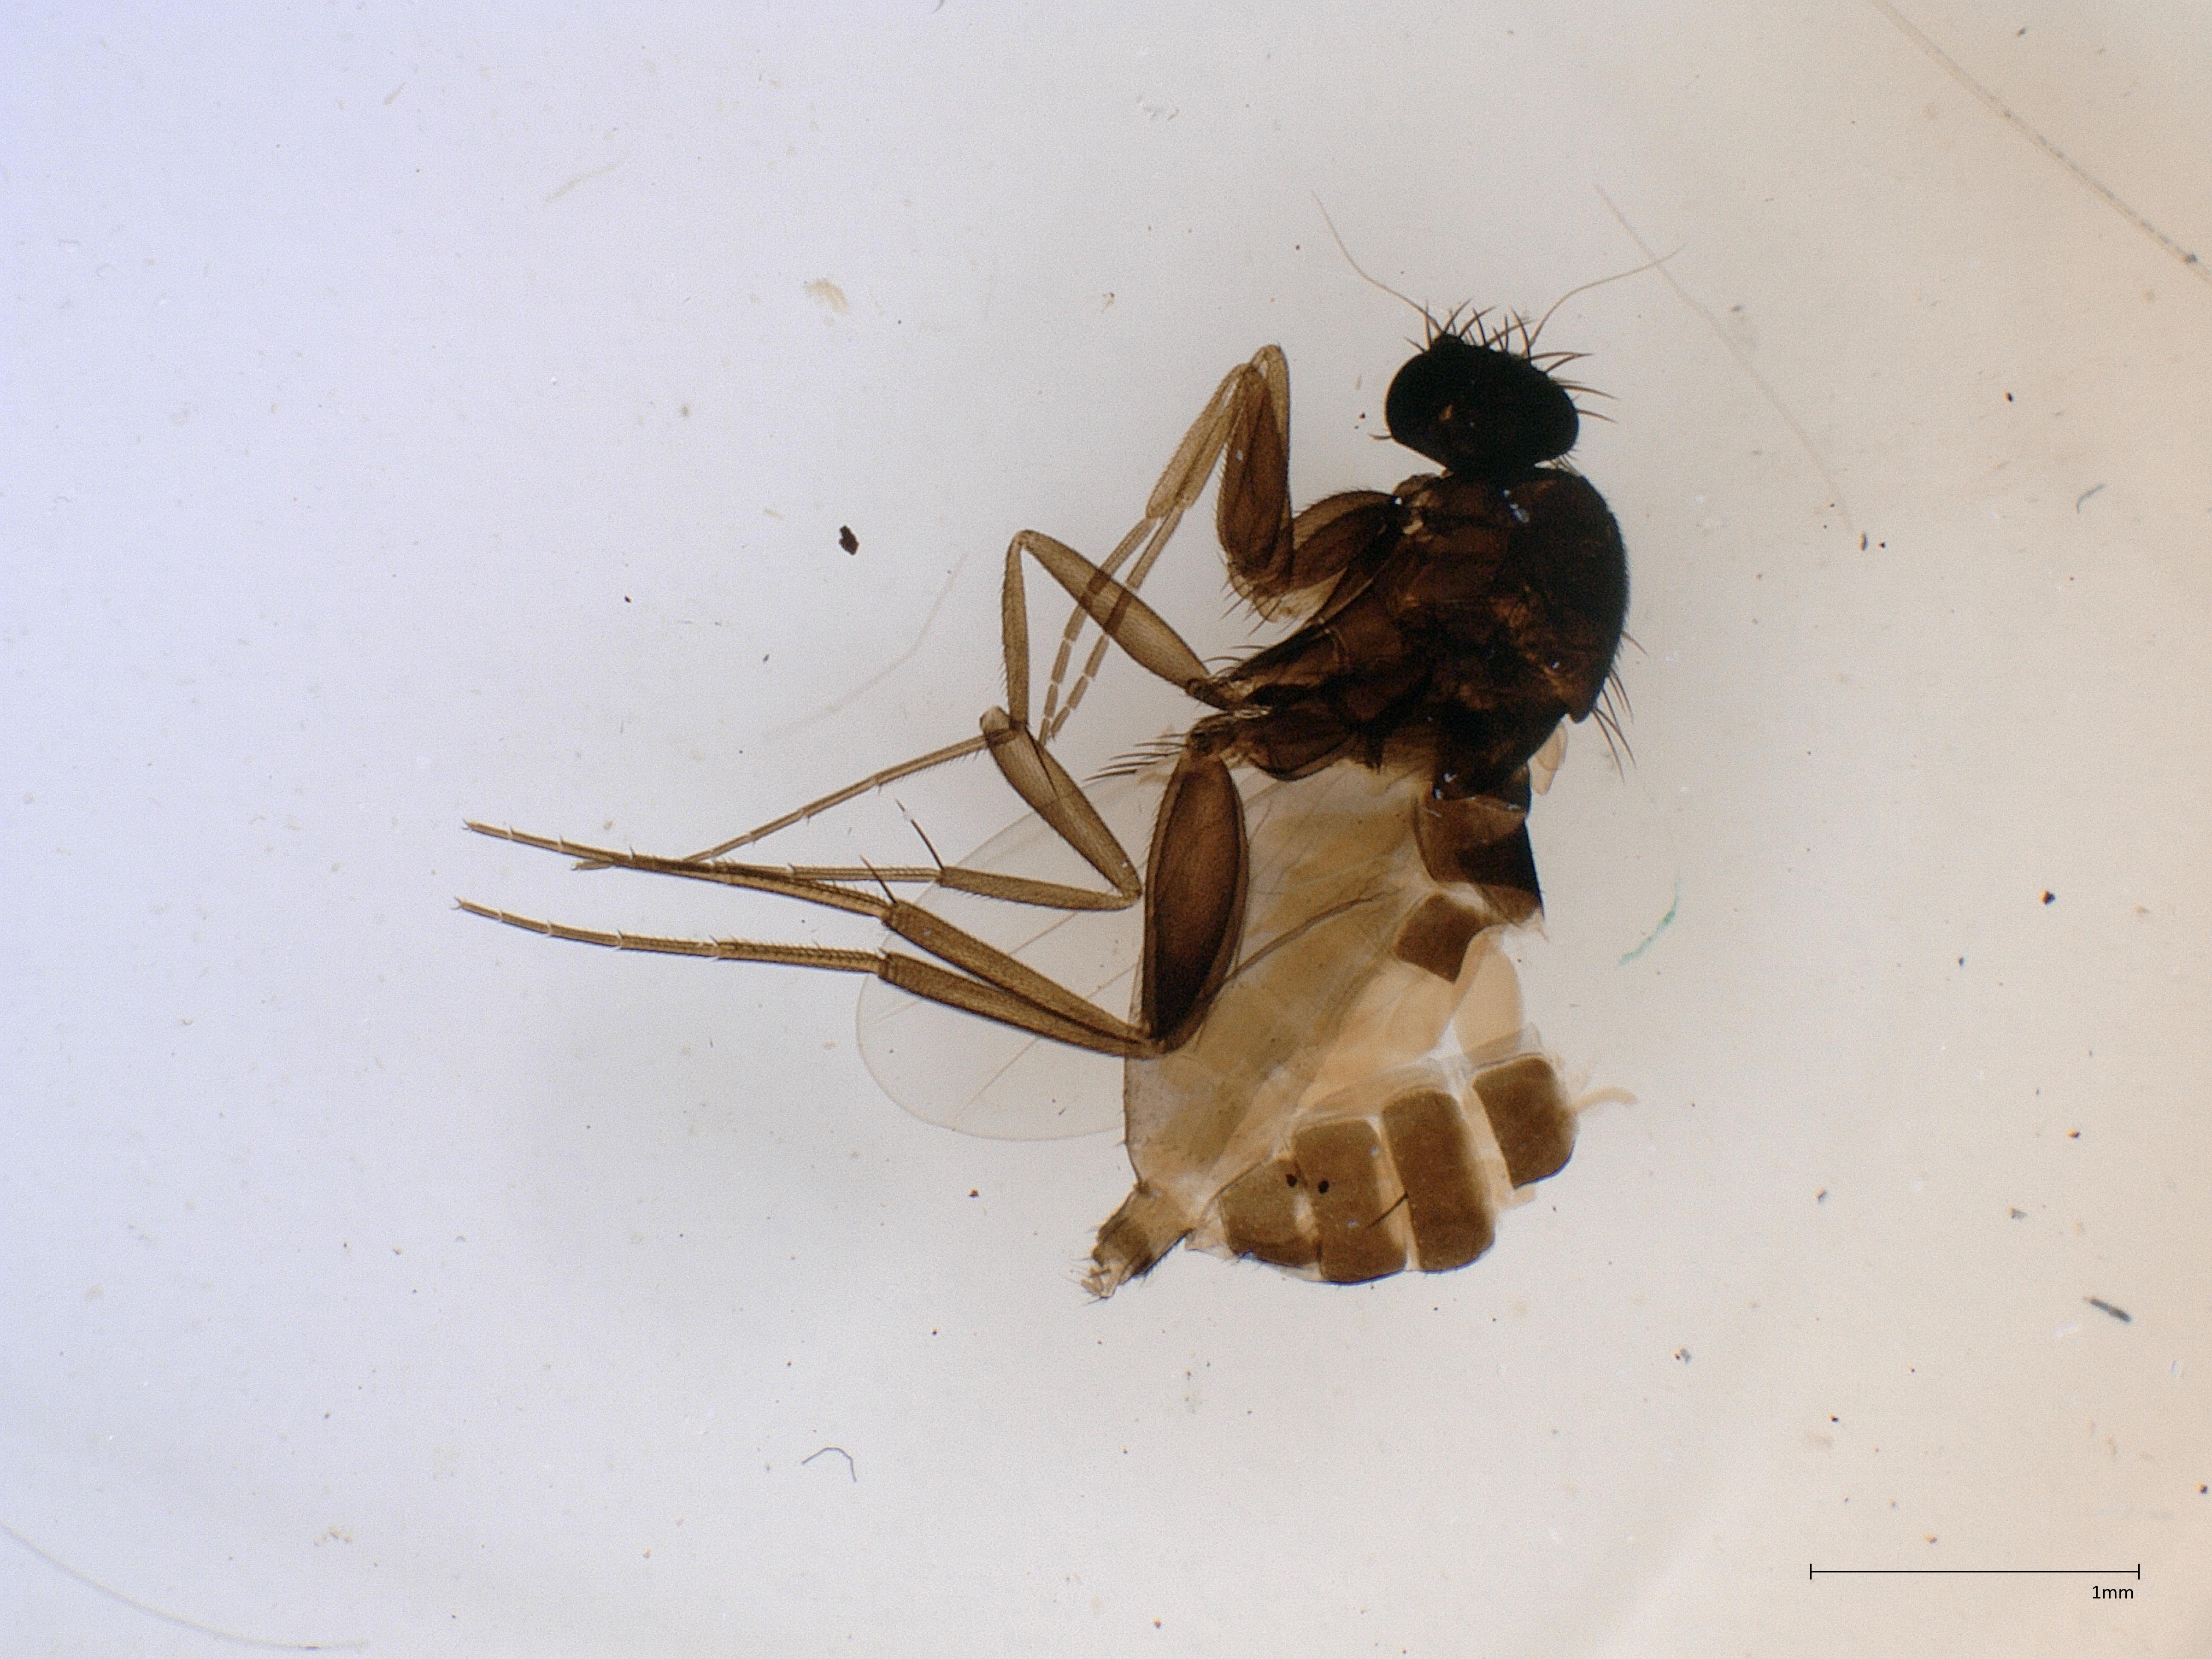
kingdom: Animalia
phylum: Arthropoda
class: Insecta
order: Diptera
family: Phoridae
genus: Megaselia
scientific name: Megaselia tenebricola
